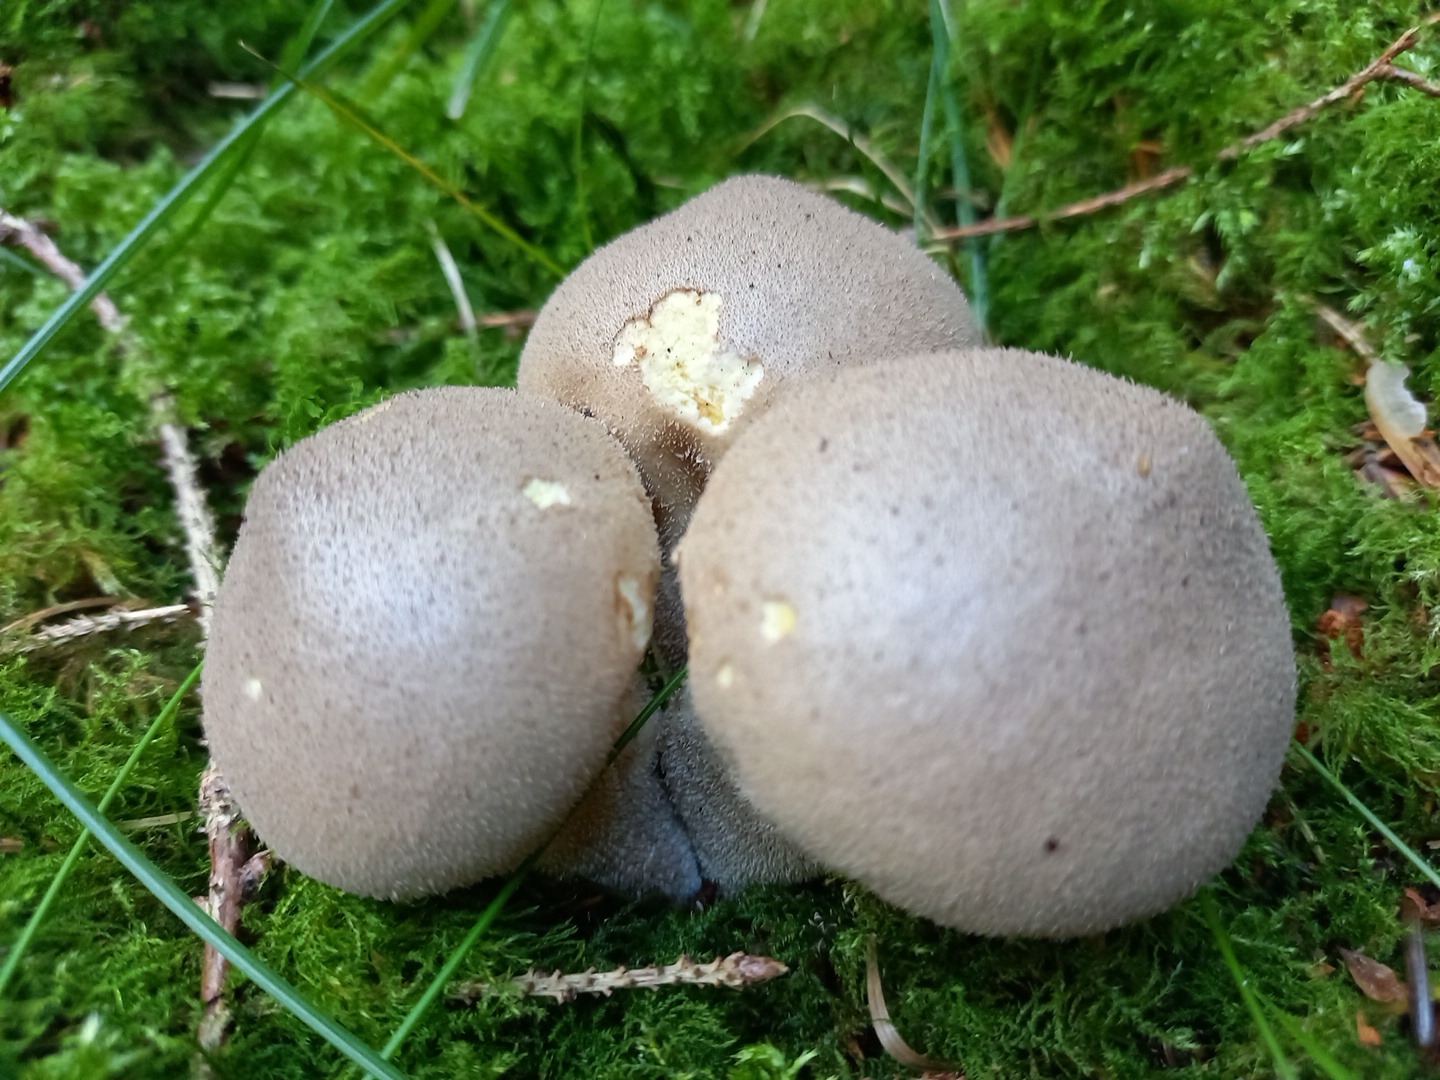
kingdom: Fungi
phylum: Basidiomycota
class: Agaricomycetes
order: Agaricales
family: Agaricaceae
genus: Lycoperdon
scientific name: Lycoperdon
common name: støvbold
